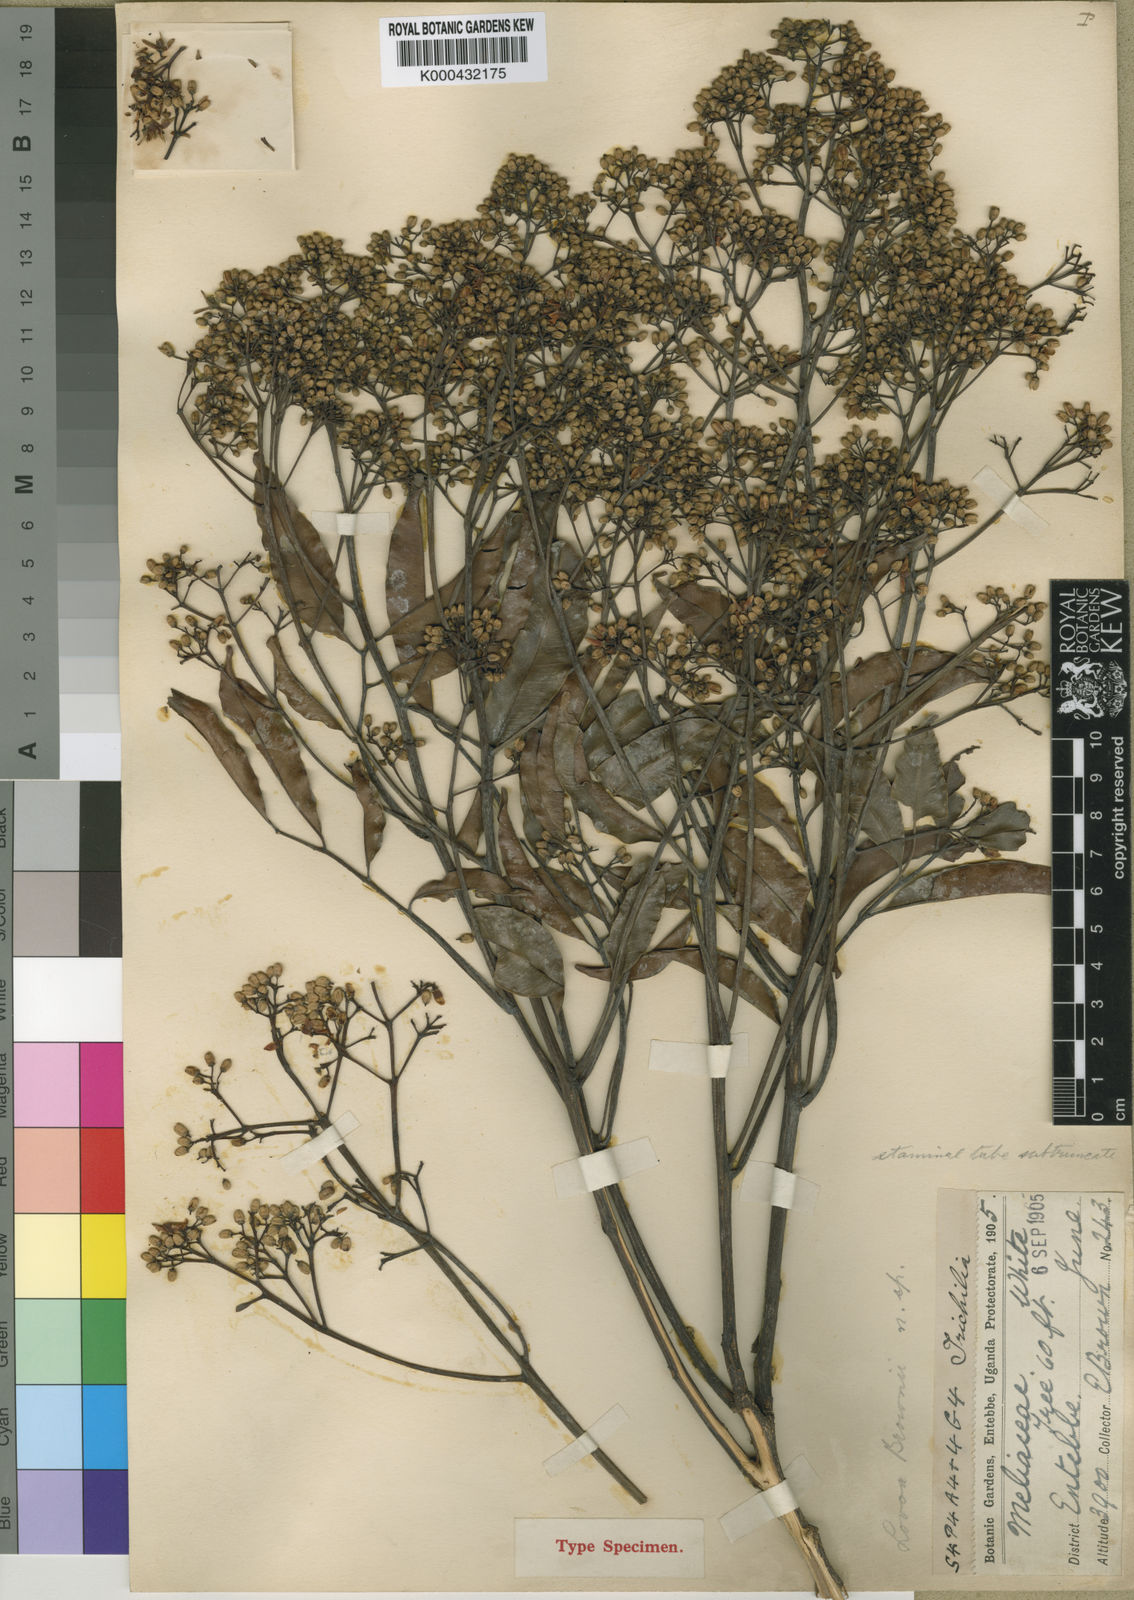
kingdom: Plantae
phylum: Tracheophyta
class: Magnoliopsida
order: Sapindales
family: Meliaceae
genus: Lovoa
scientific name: Lovoa trichilioides
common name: Congowood
